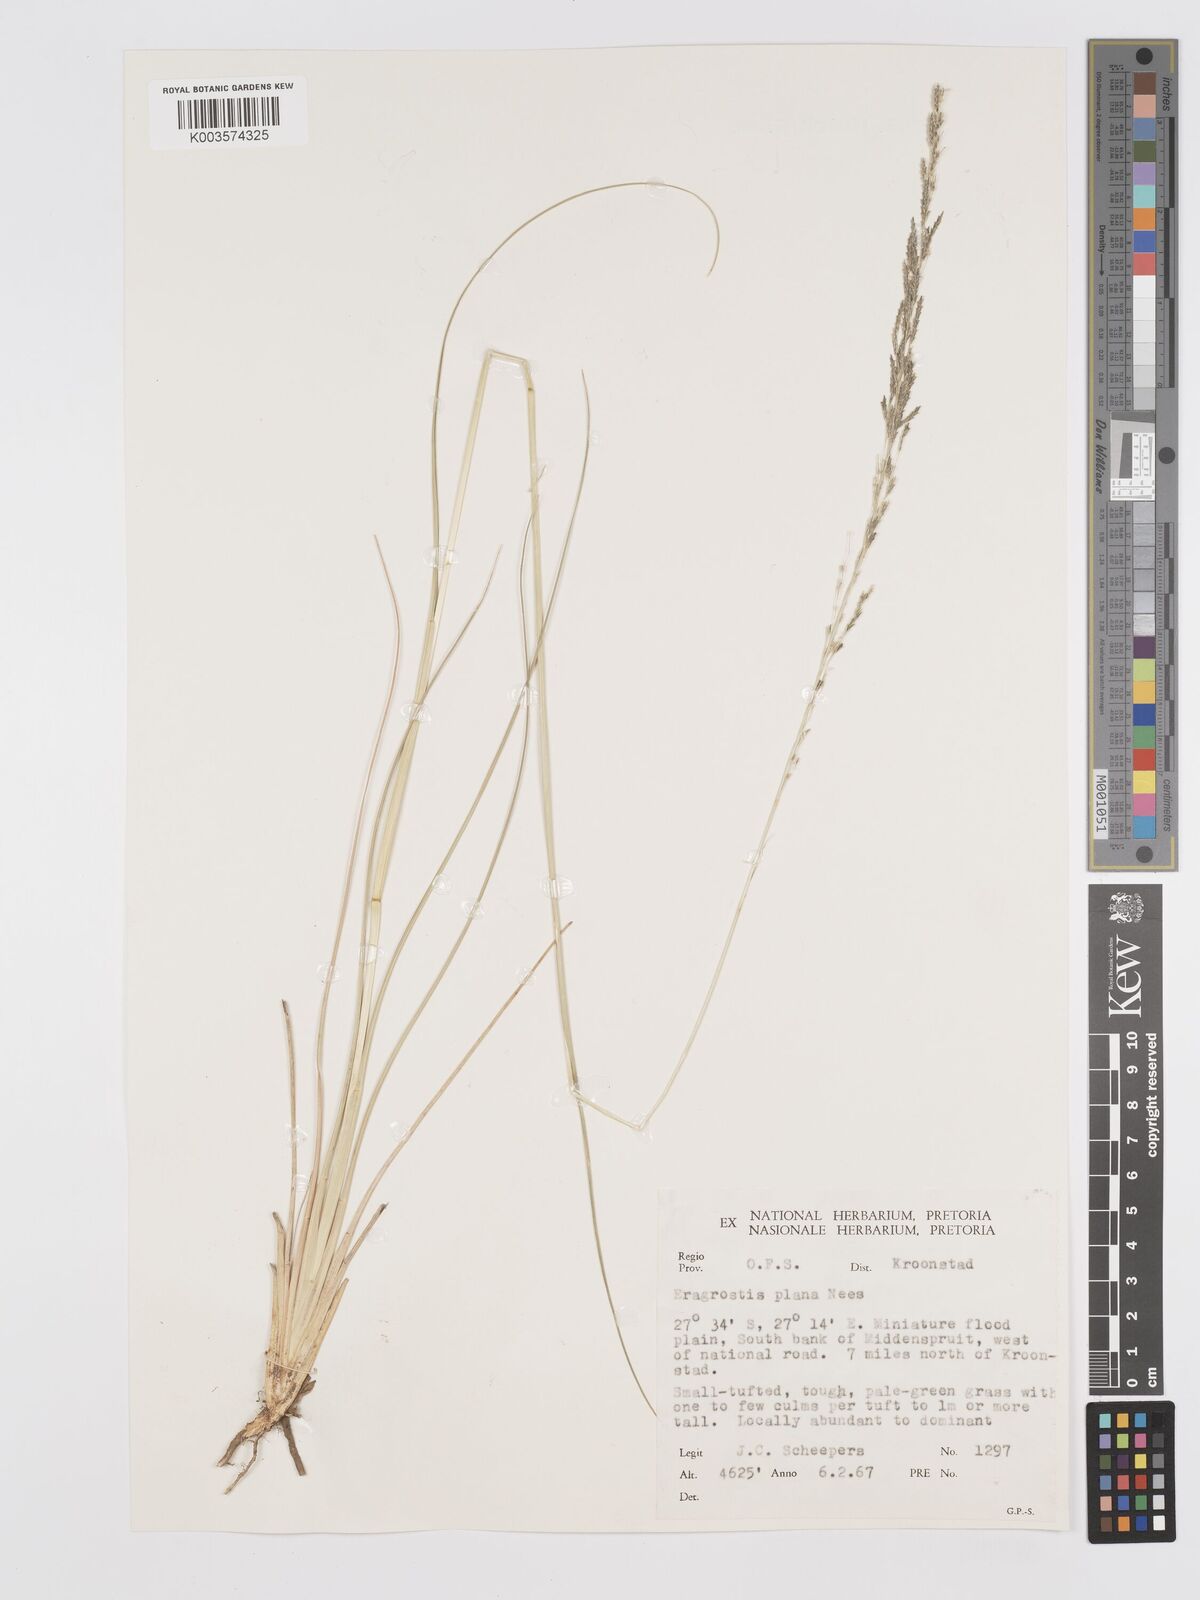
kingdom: Plantae
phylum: Tracheophyta
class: Liliopsida
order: Poales
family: Poaceae
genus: Eragrostis
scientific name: Eragrostis plana
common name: South african lovegrass
